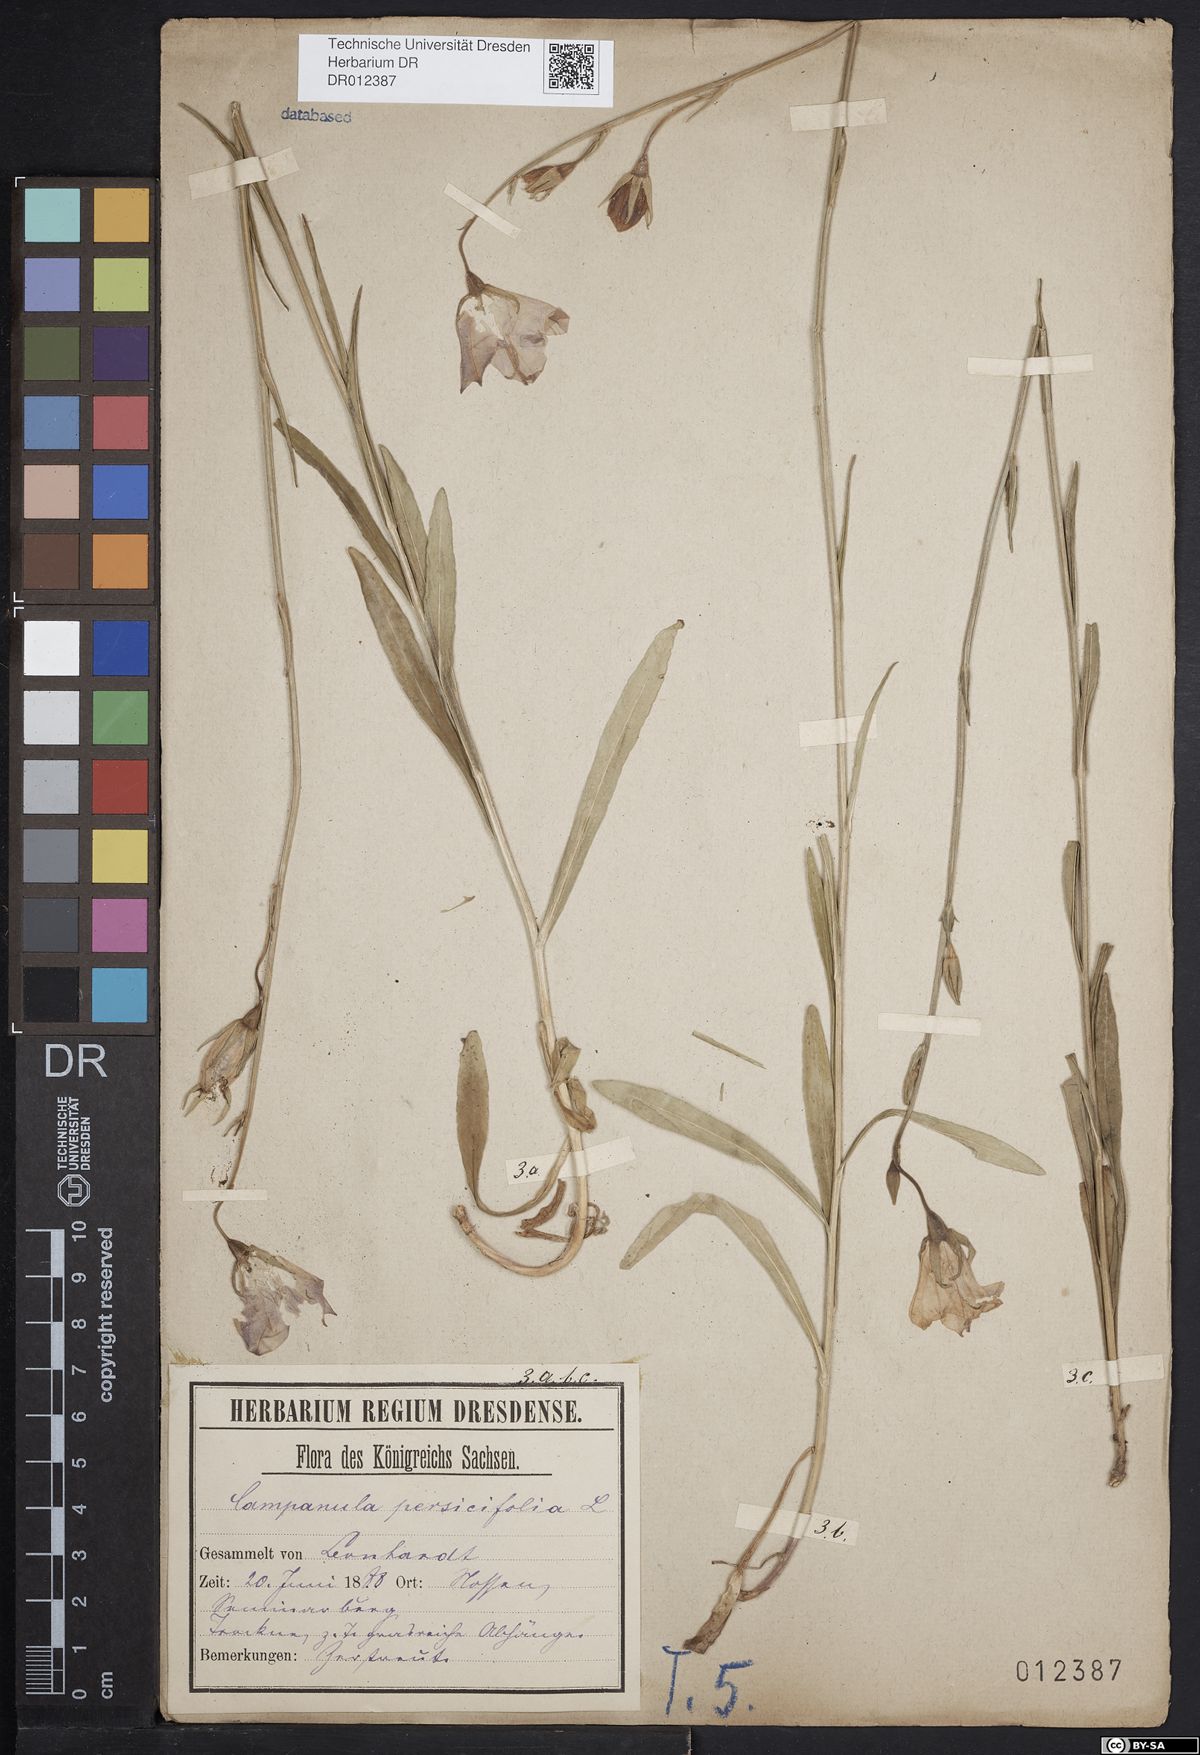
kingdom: Plantae
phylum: Tracheophyta
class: Magnoliopsida
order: Asterales
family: Campanulaceae
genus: Campanula
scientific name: Campanula persicifolia
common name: Peach-leaved bellflower
